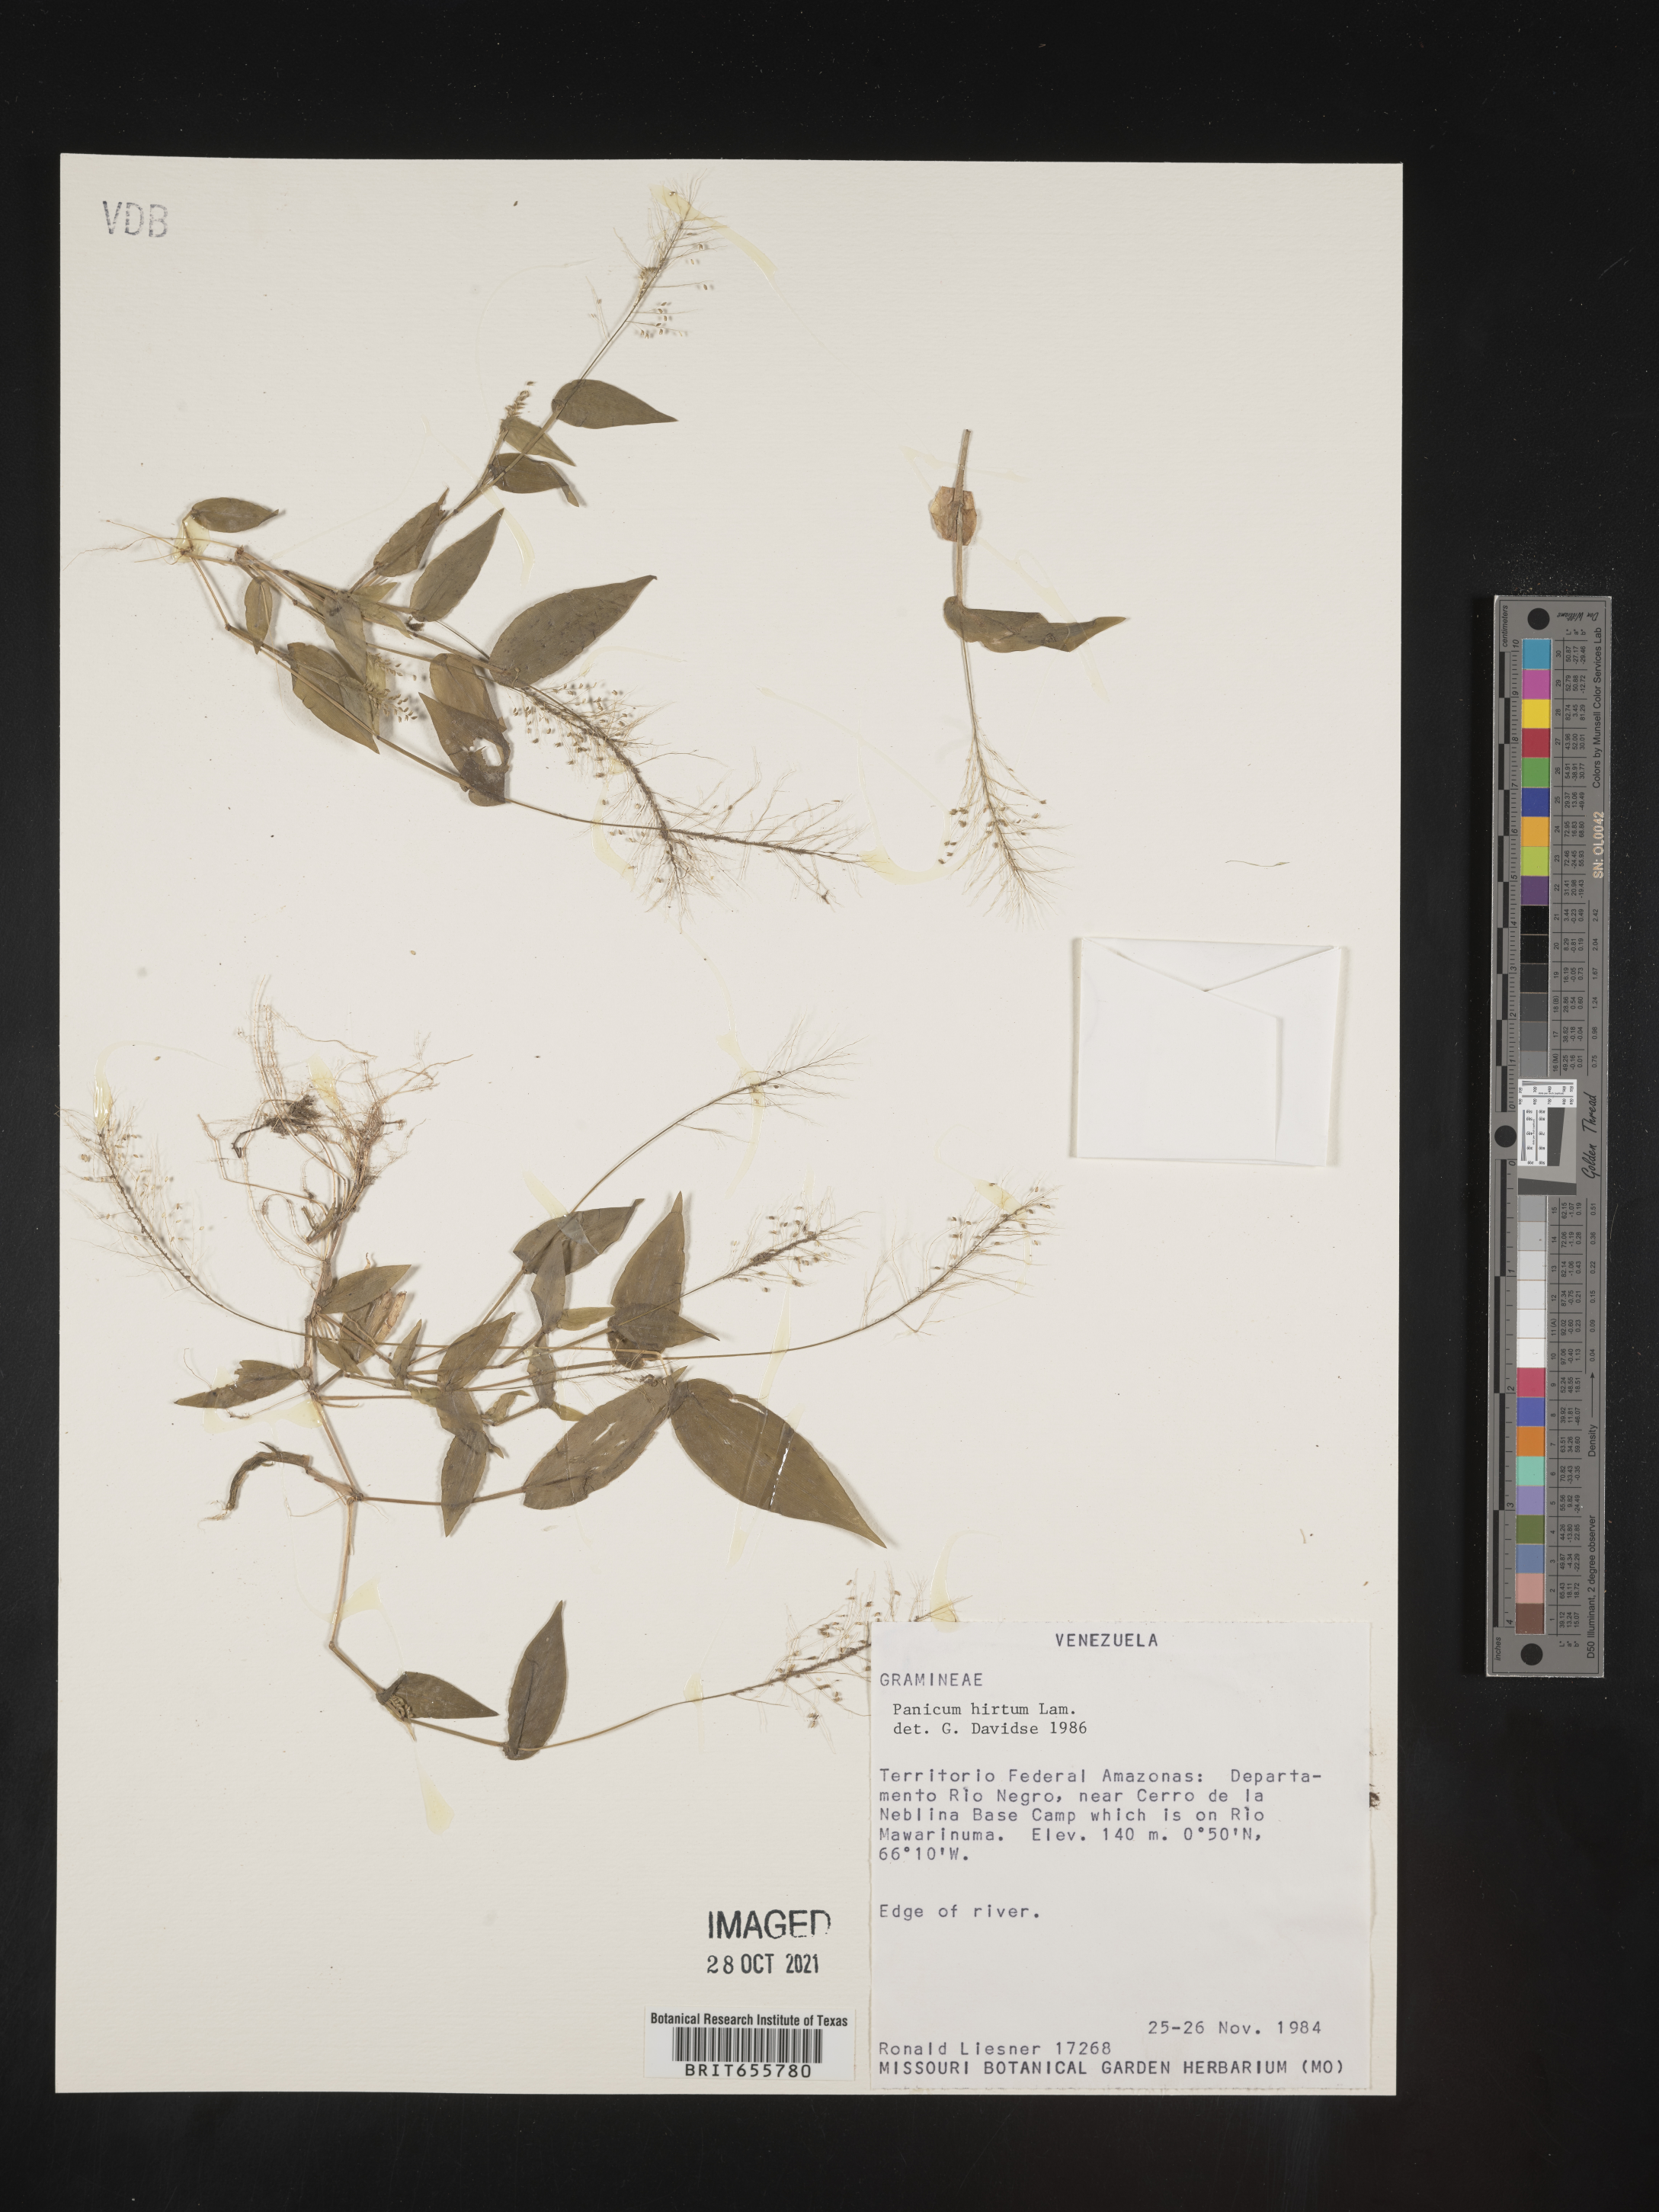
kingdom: Plantae
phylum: Tracheophyta
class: Liliopsida
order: Poales
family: Poaceae
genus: Panicum
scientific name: Panicum
